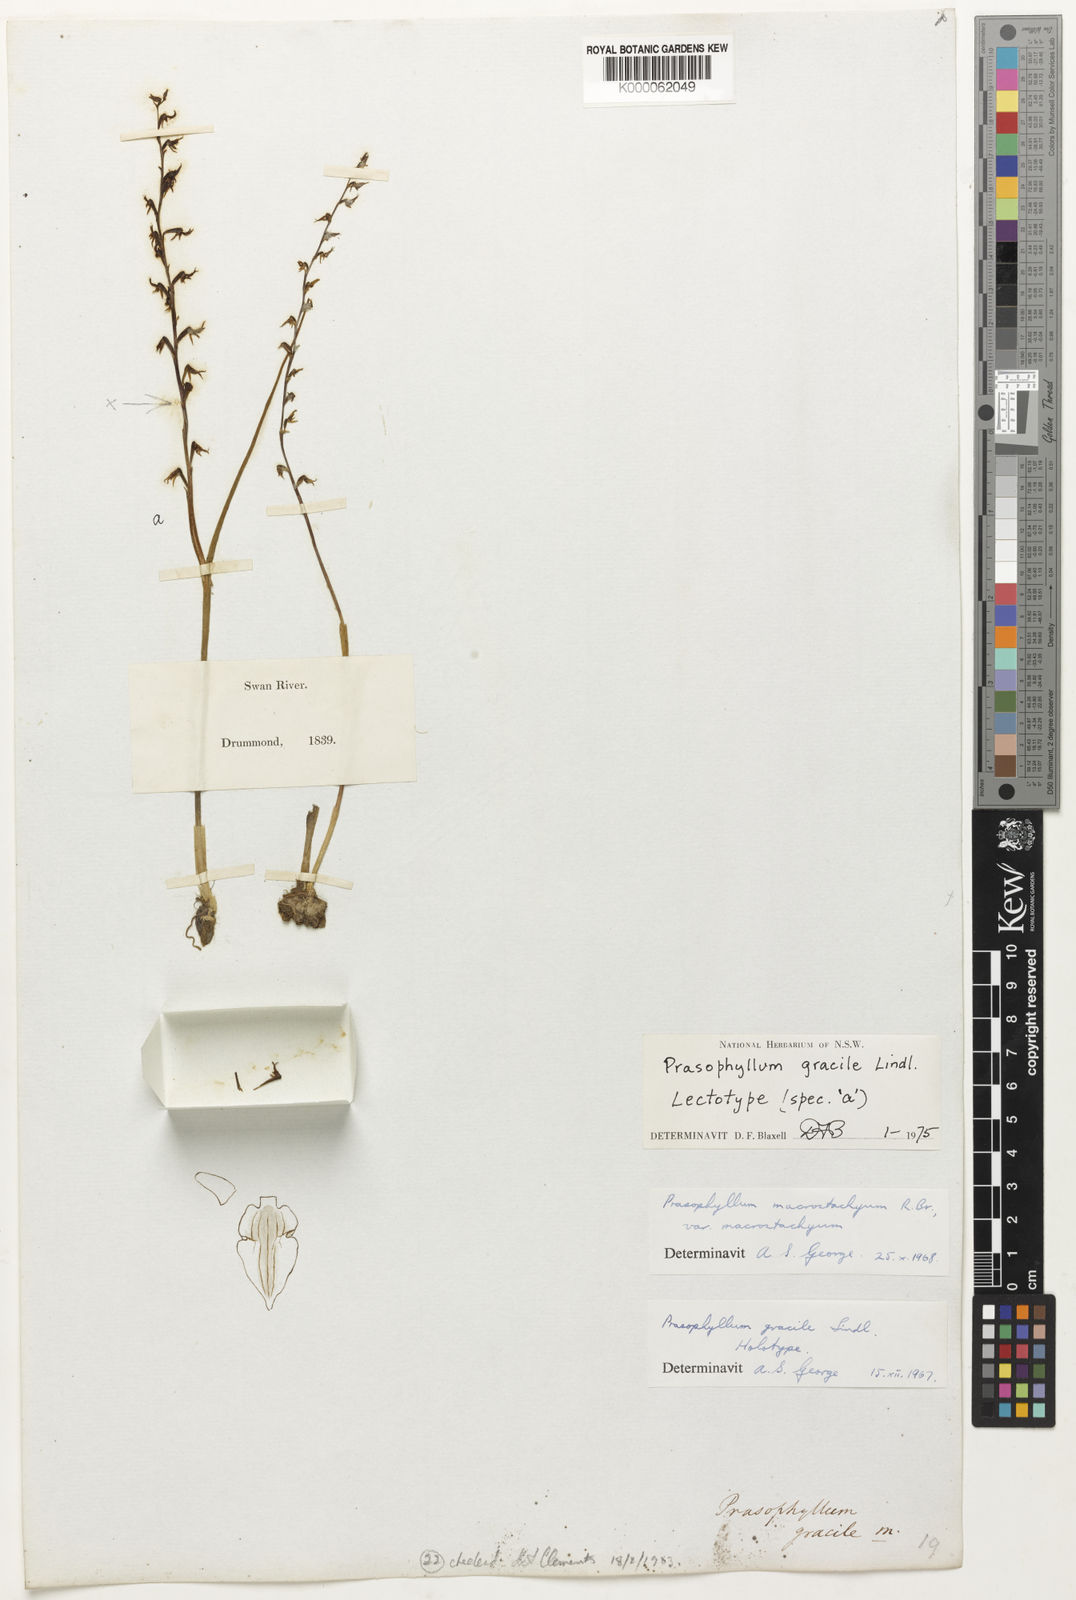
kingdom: Plantae
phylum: Tracheophyta
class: Liliopsida
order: Asparagales
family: Orchidaceae
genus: Prasophyllum
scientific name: Prasophyllum gracile
